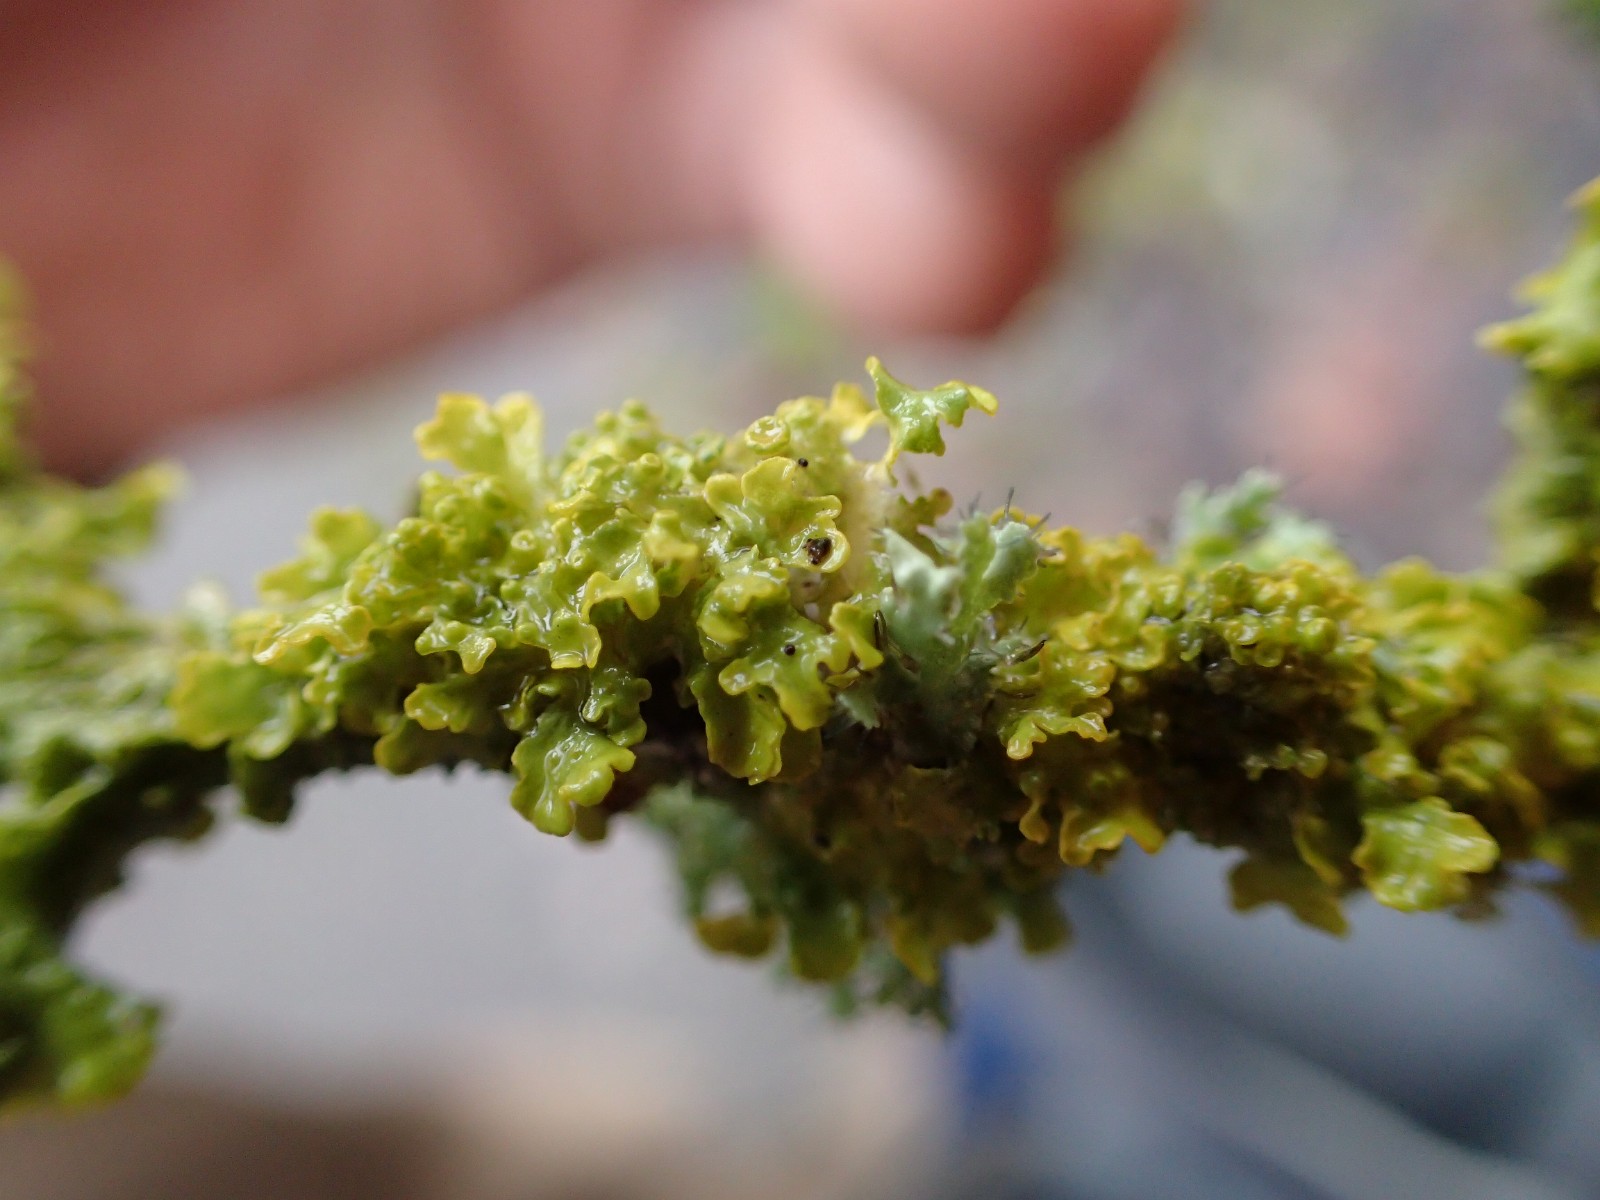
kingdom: Fungi
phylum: Ascomycota
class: Lecanoromycetes
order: Teloschistales
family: Teloschistaceae
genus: Xanthoria
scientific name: Xanthoria parietina
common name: almindelig væggelav
